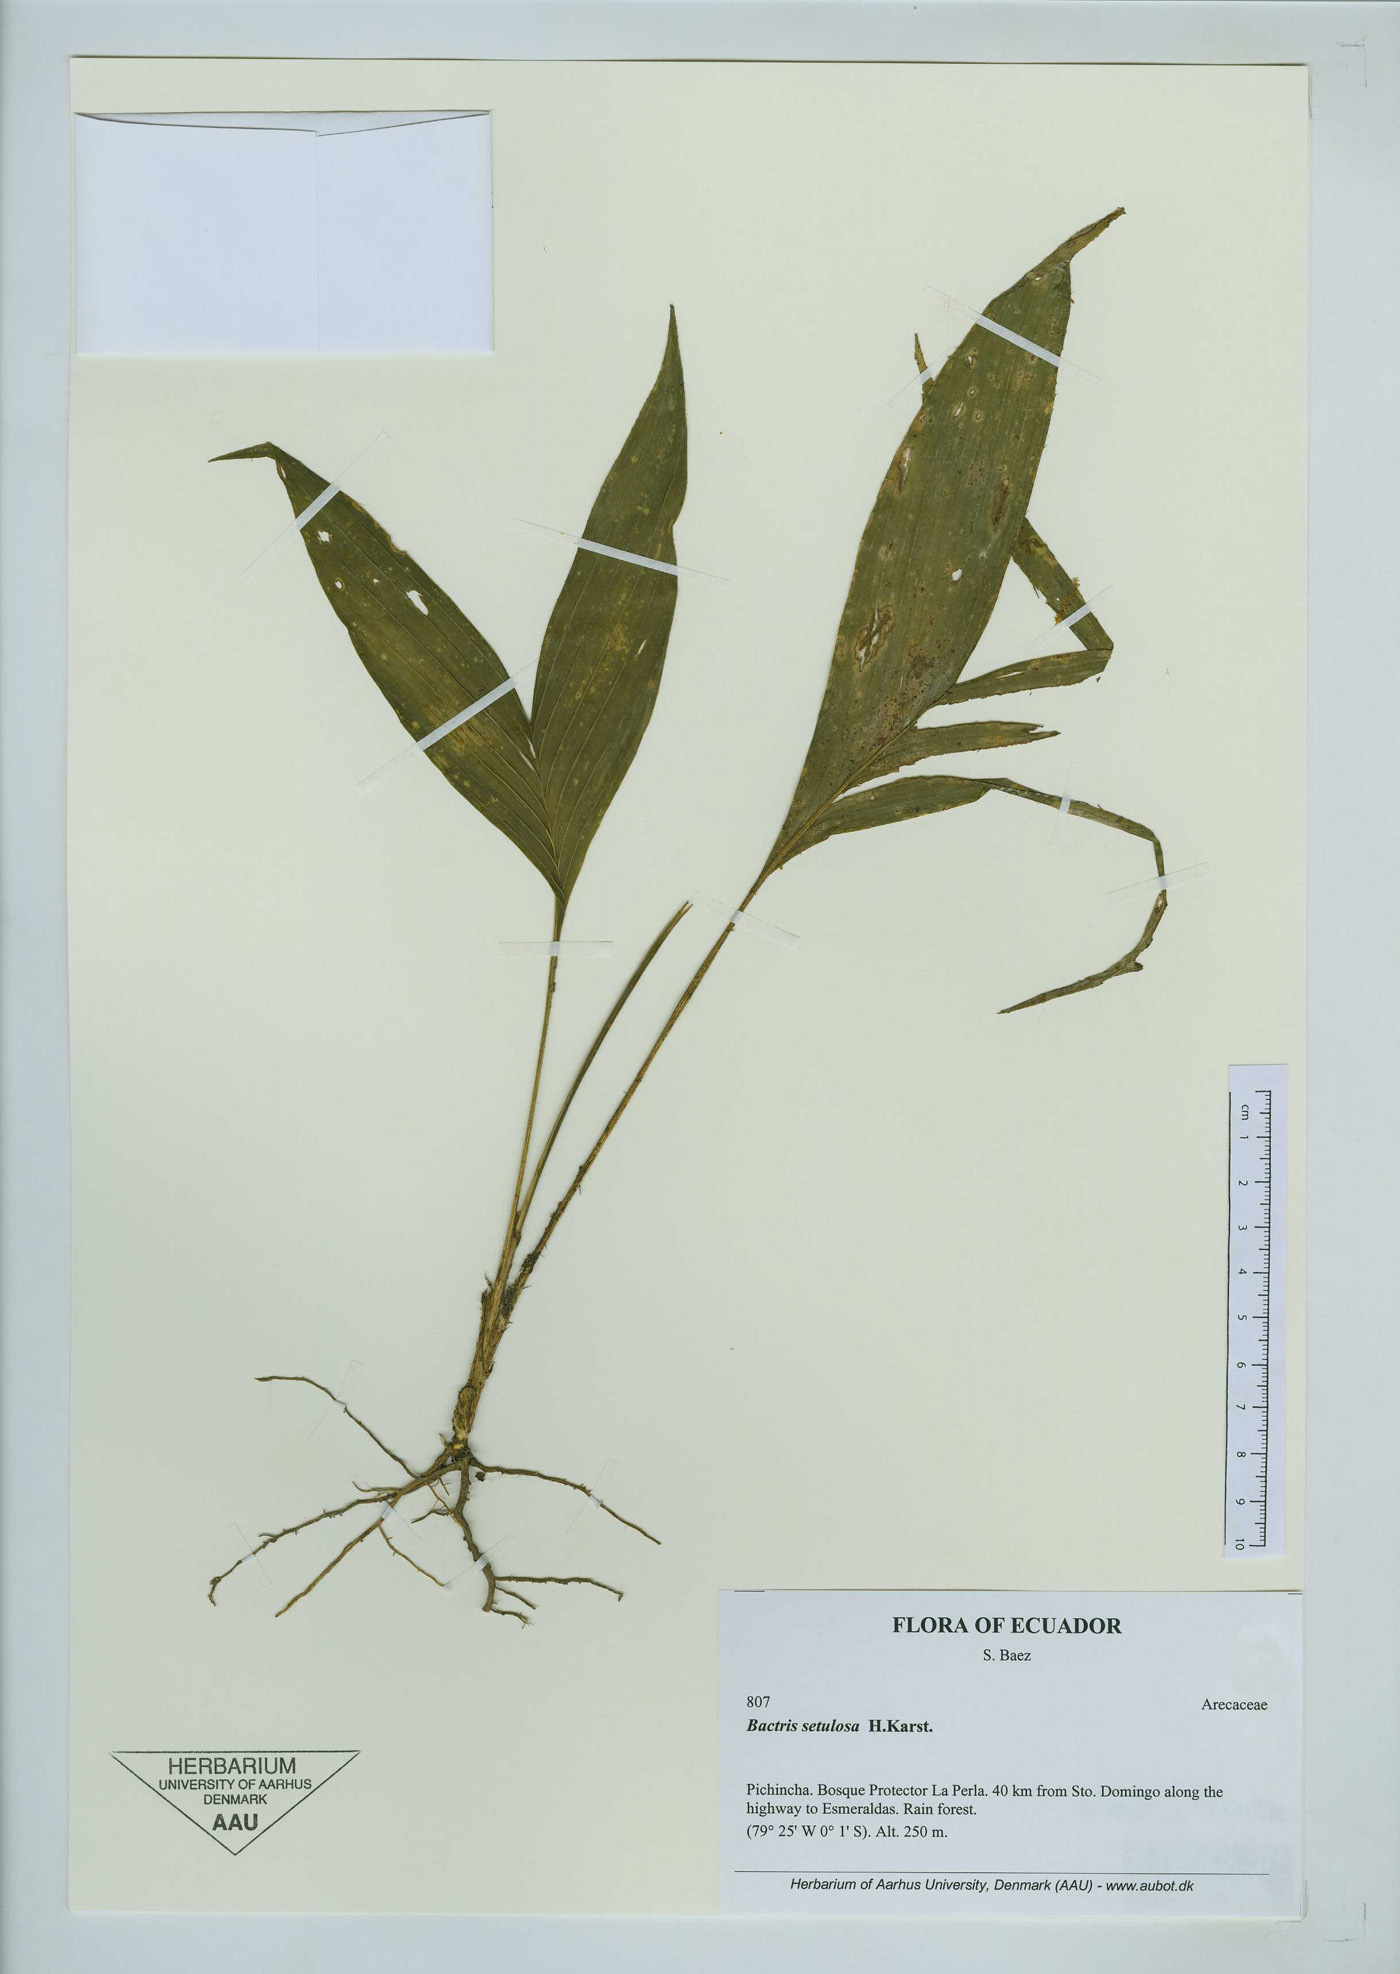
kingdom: Plantae
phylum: Tracheophyta
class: Liliopsida
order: Arecales
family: Arecaceae
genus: Bactris
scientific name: Bactris setulosa
